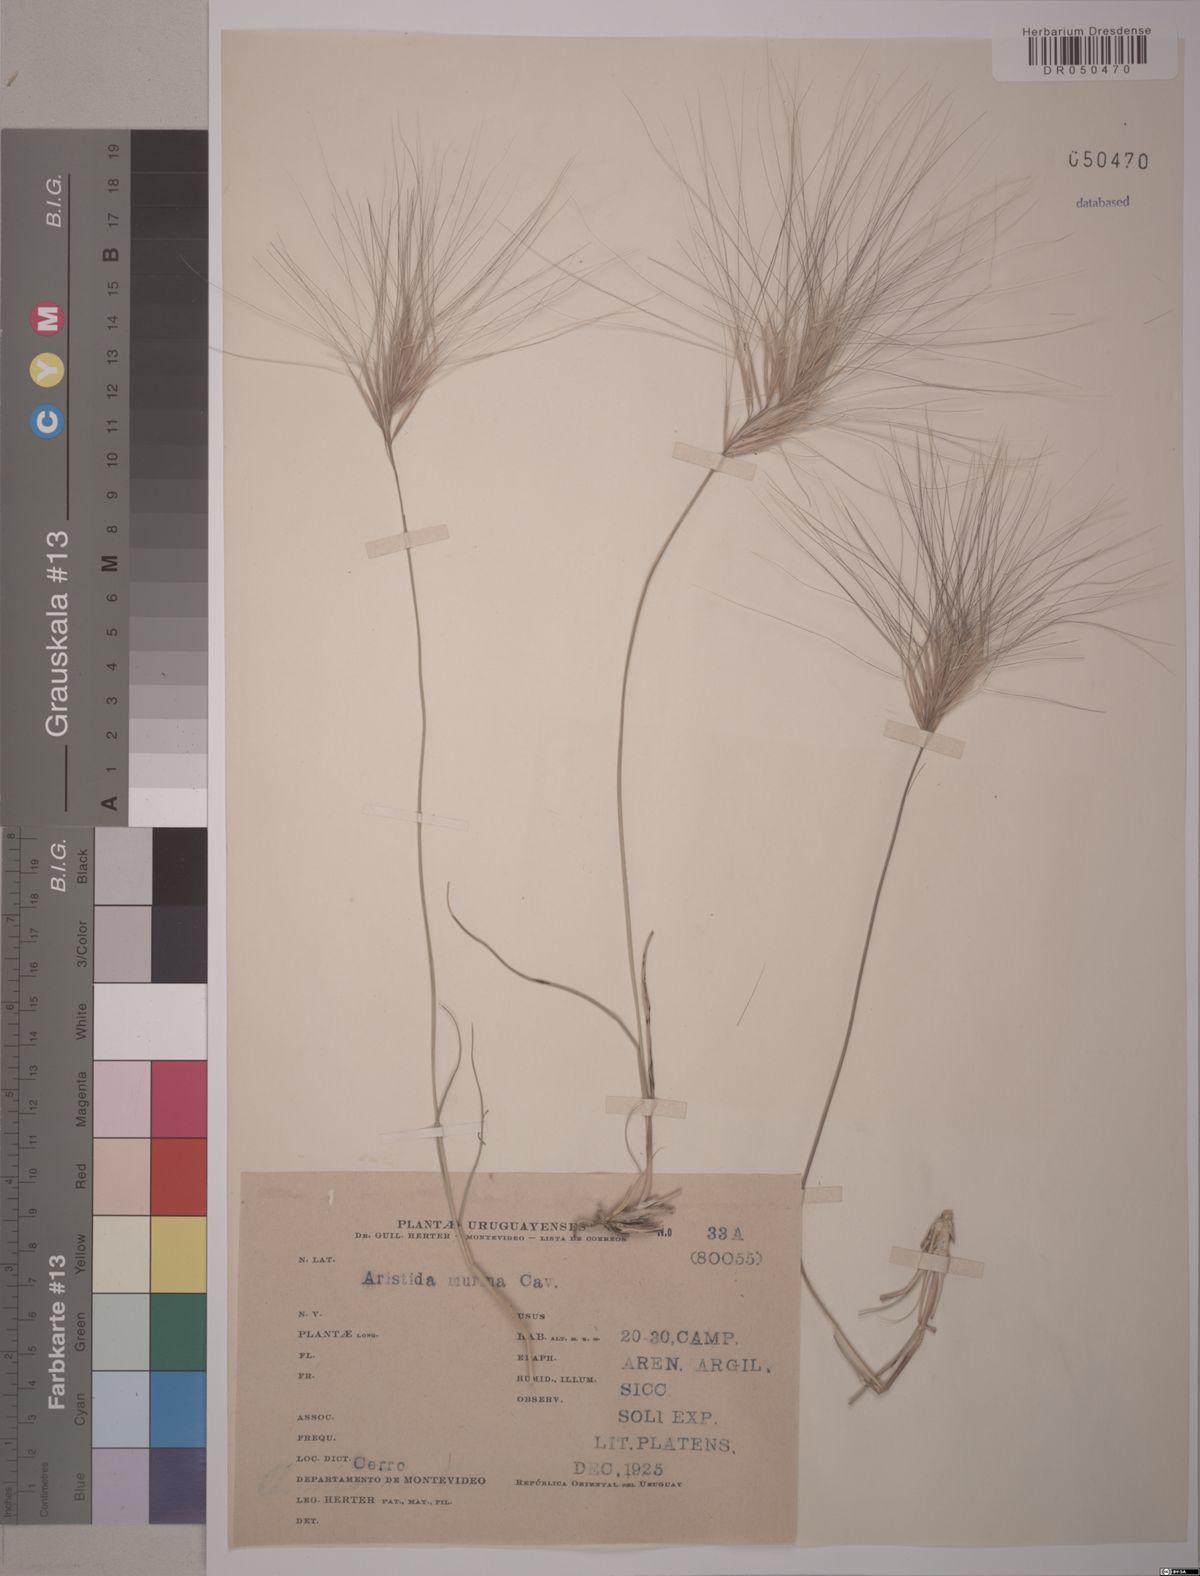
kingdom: Plantae
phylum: Tracheophyta
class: Liliopsida
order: Poales
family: Poaceae
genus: Aristida
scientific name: Aristida murina
